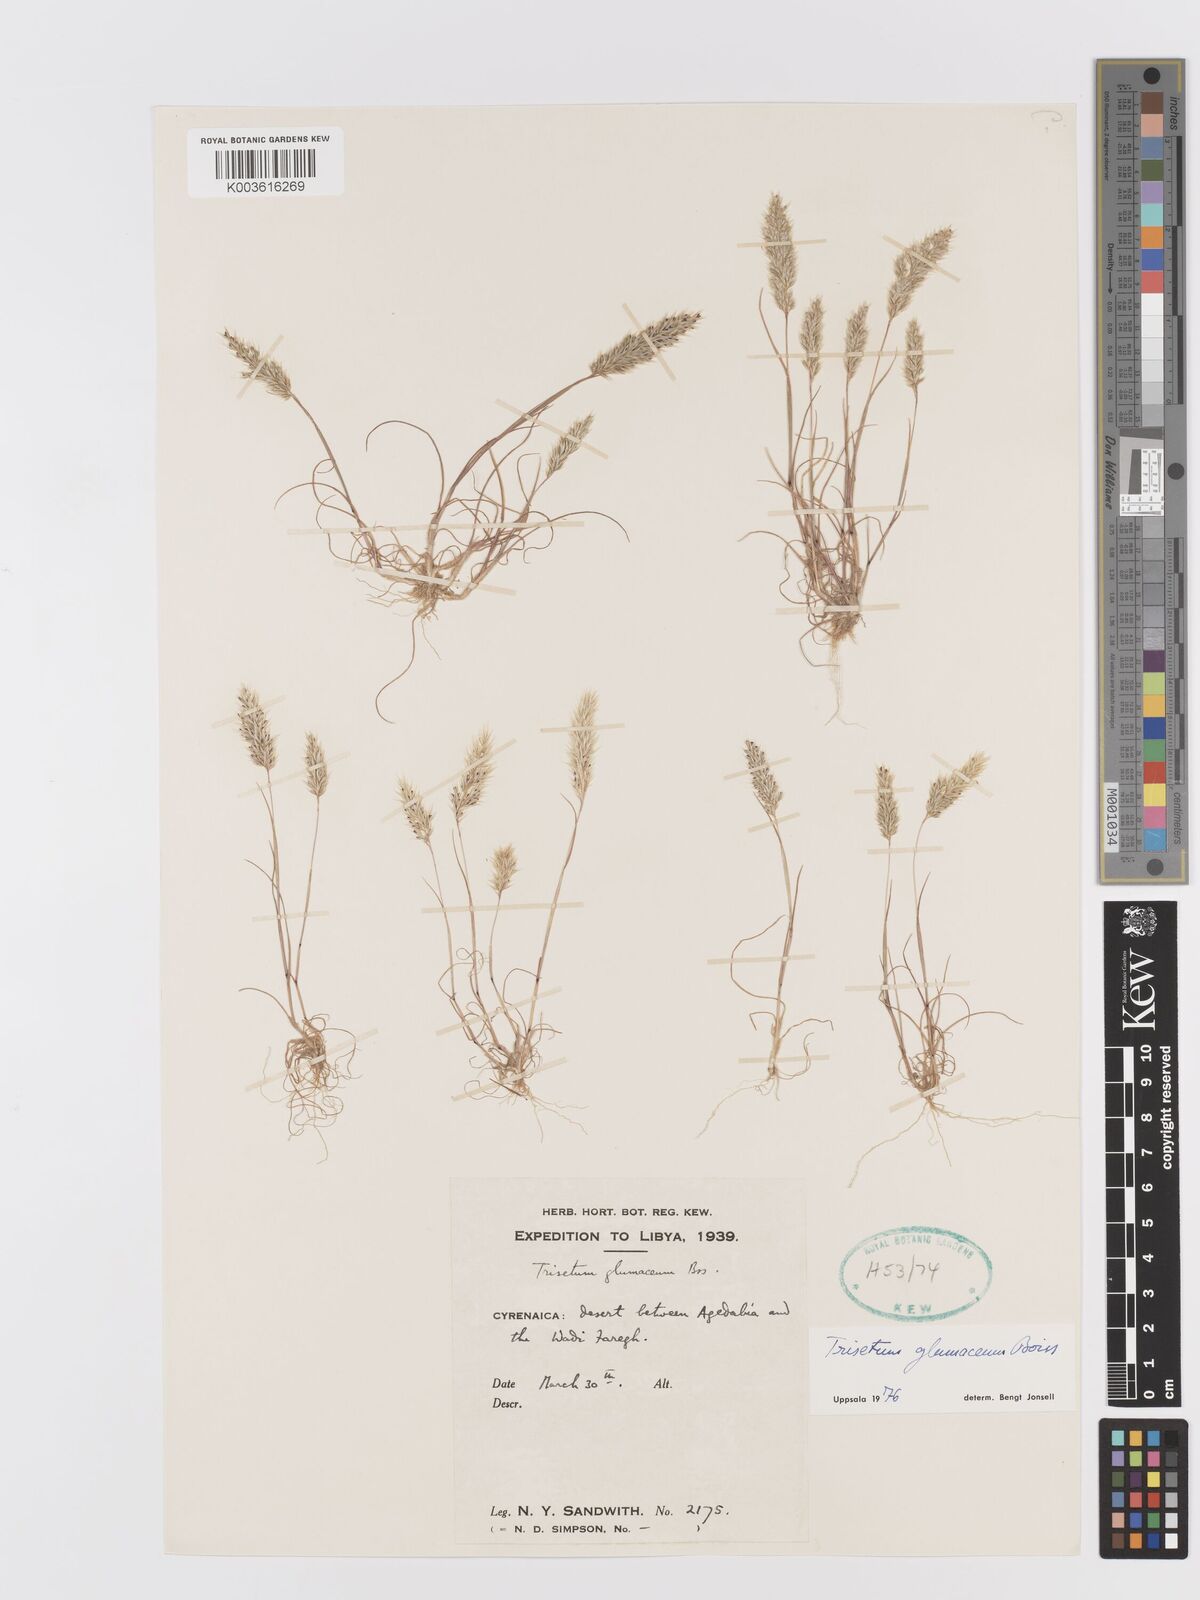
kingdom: Plantae
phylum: Tracheophyta
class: Liliopsida
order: Poales
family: Poaceae
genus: Trisetaria
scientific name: Trisetaria glumacea
